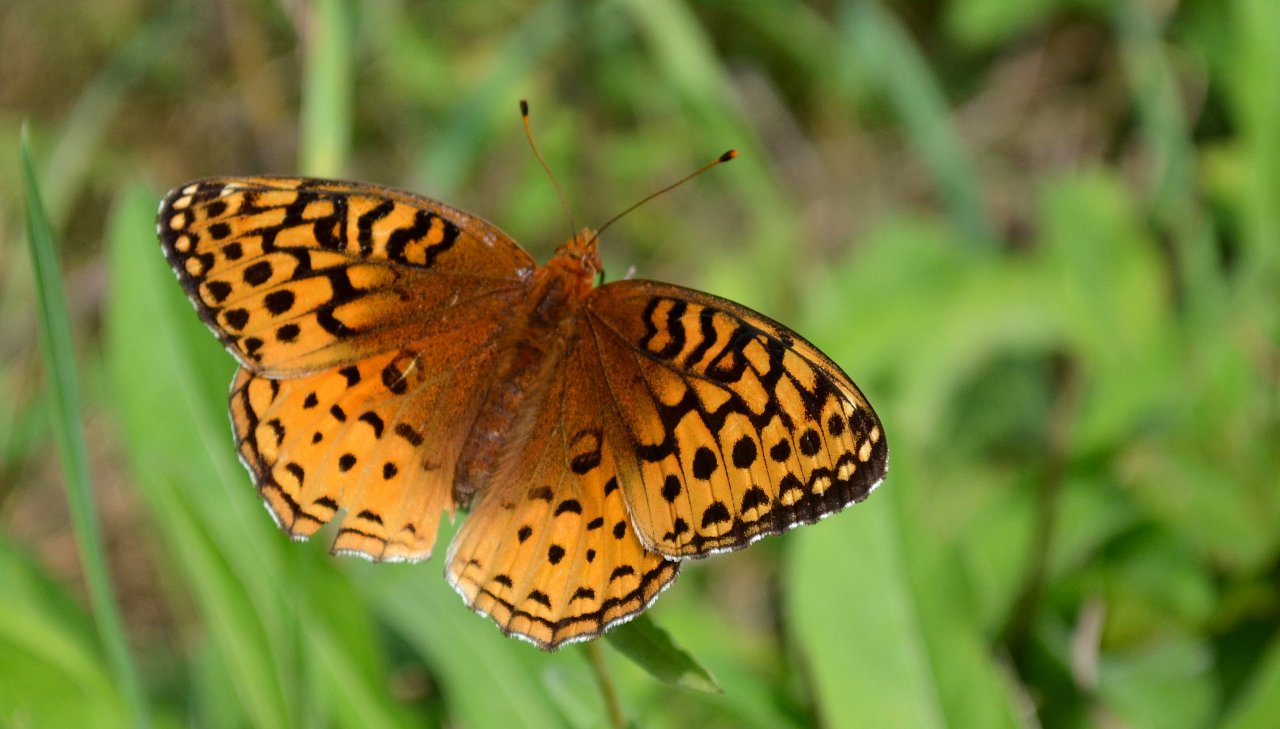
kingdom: Animalia
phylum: Arthropoda
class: Insecta
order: Lepidoptera
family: Nymphalidae
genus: Speyeria
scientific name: Speyeria cybele
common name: Great Spangled Fritillary
